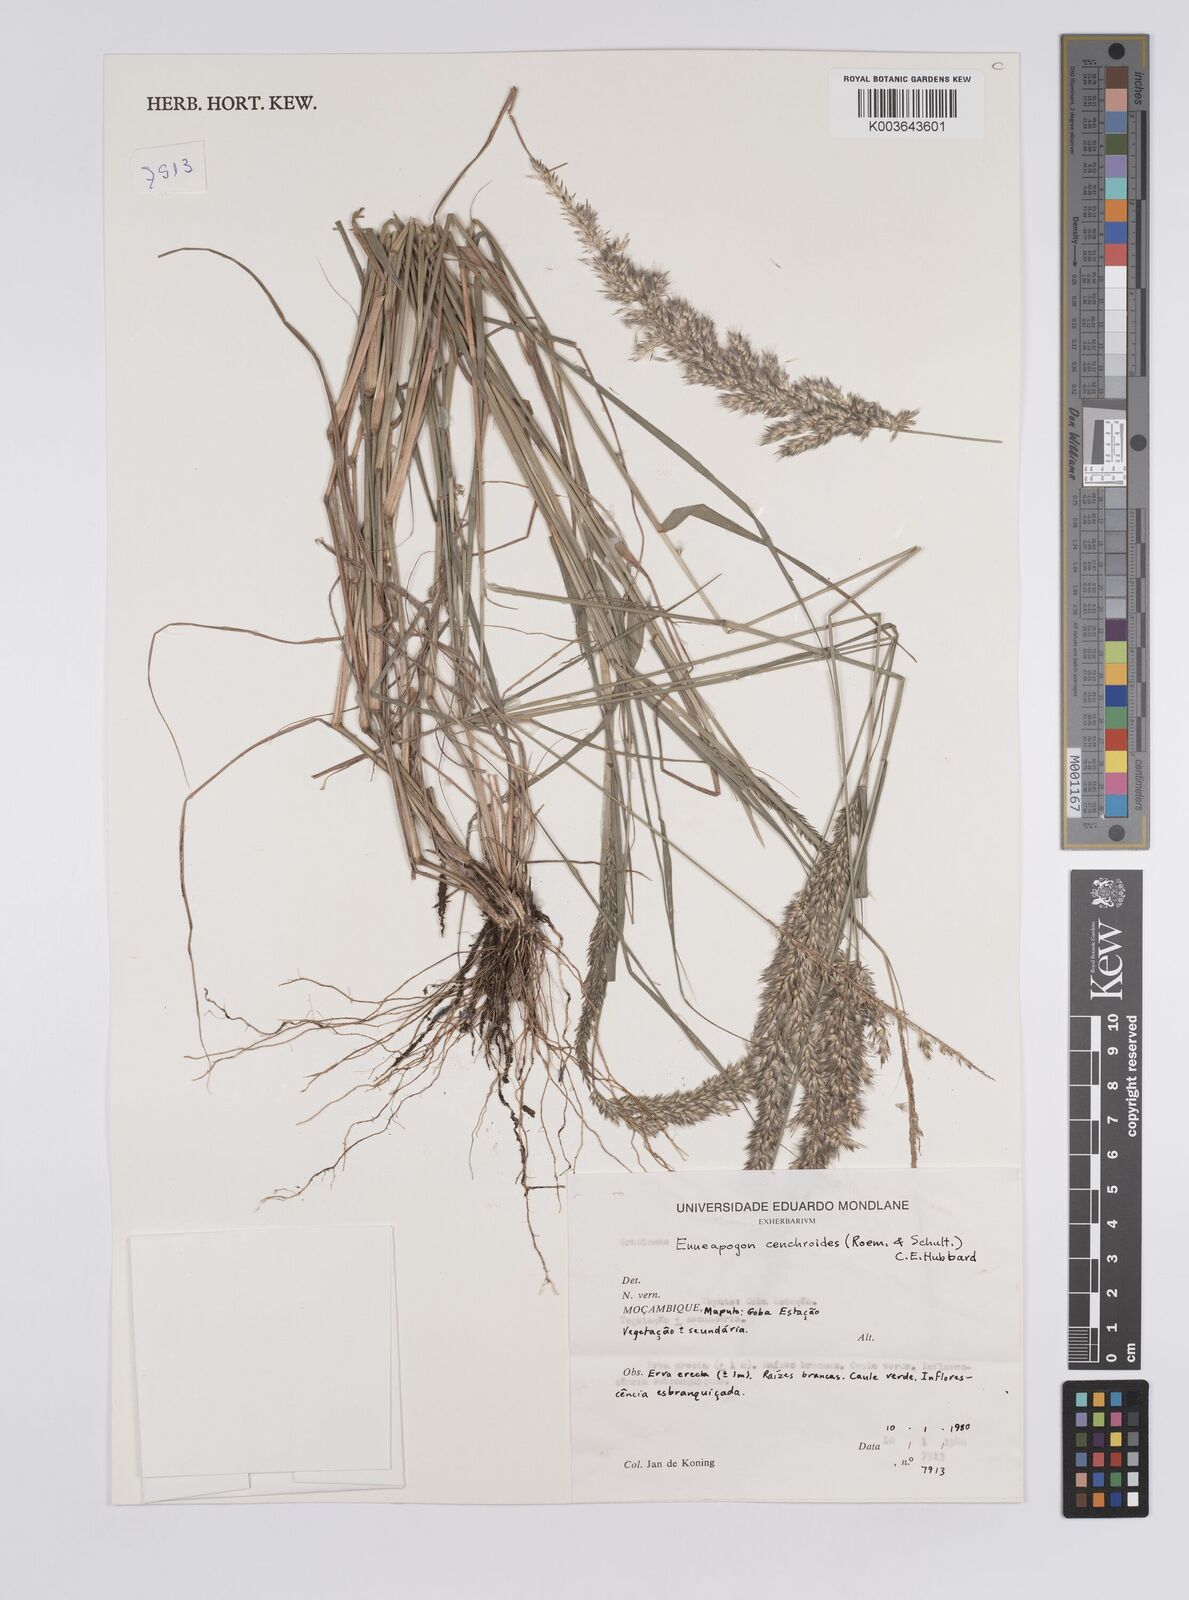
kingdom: Plantae
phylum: Tracheophyta
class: Liliopsida
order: Poales
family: Poaceae
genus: Enneapogon
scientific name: Enneapogon cenchroides
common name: Soft feather pappusgrass
